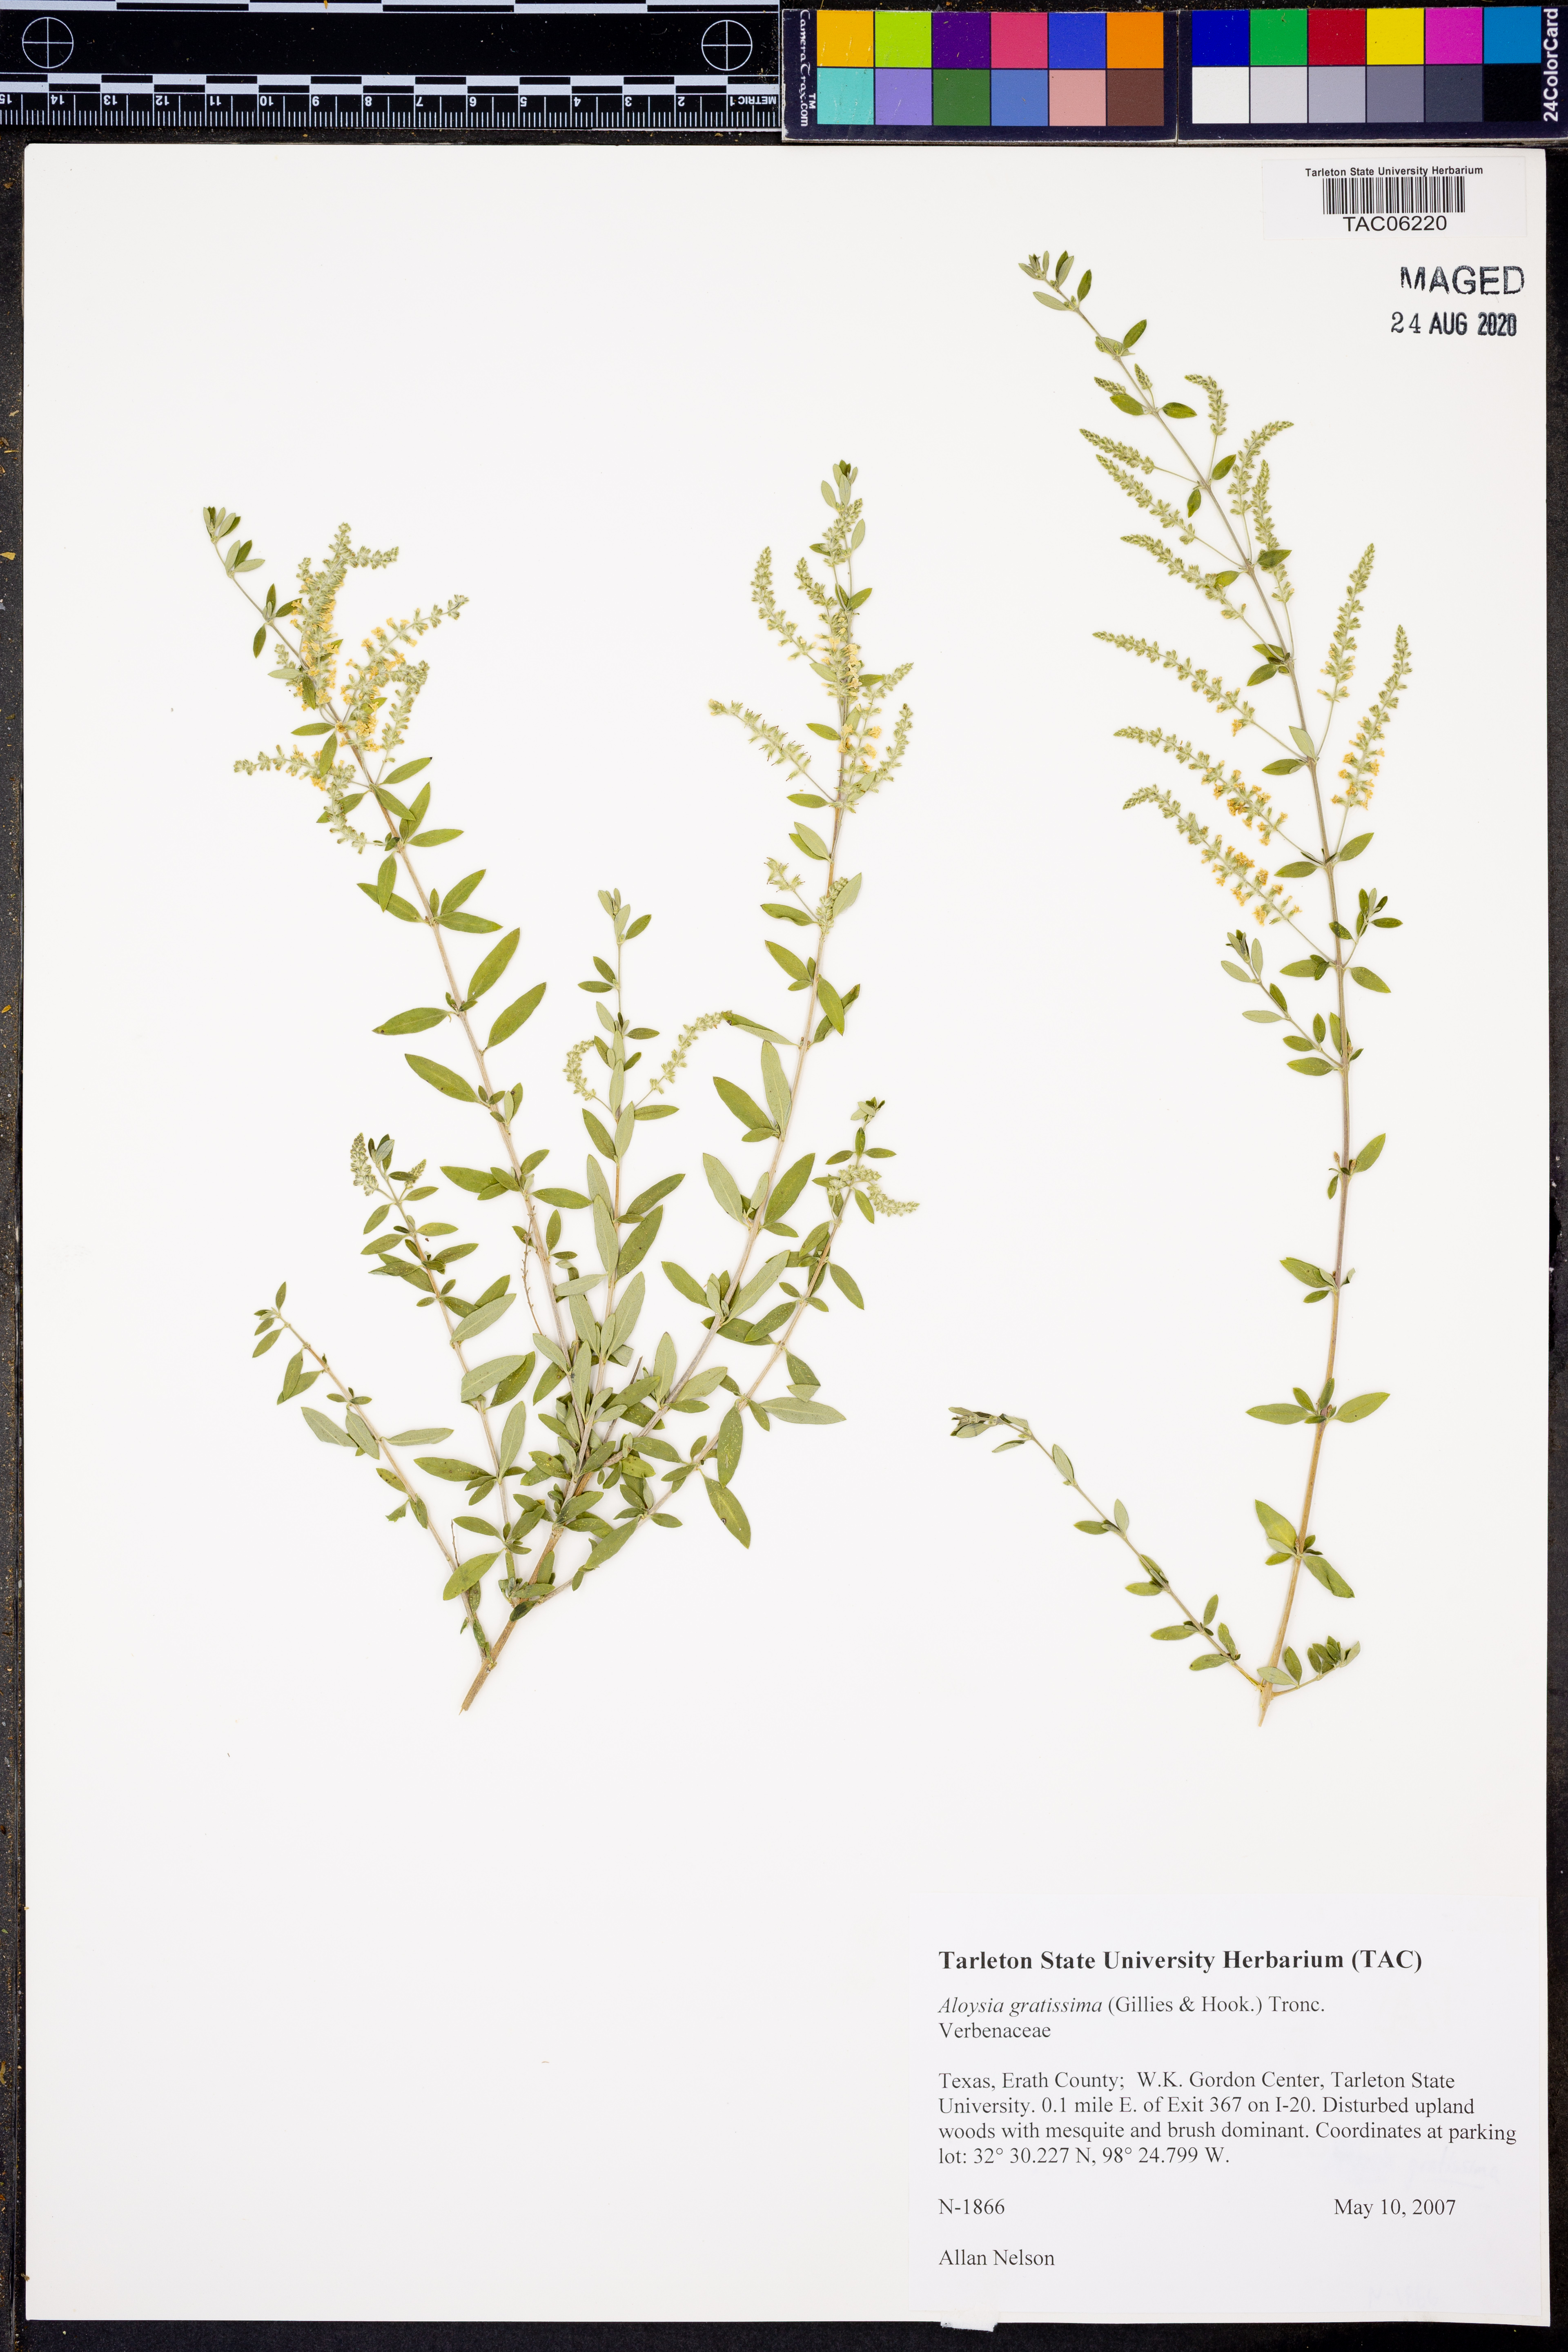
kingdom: Plantae
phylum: Tracheophyta
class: Magnoliopsida
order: Lamiales
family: Verbenaceae
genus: Aloysia
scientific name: Aloysia gratissima
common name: Common bee-brush
